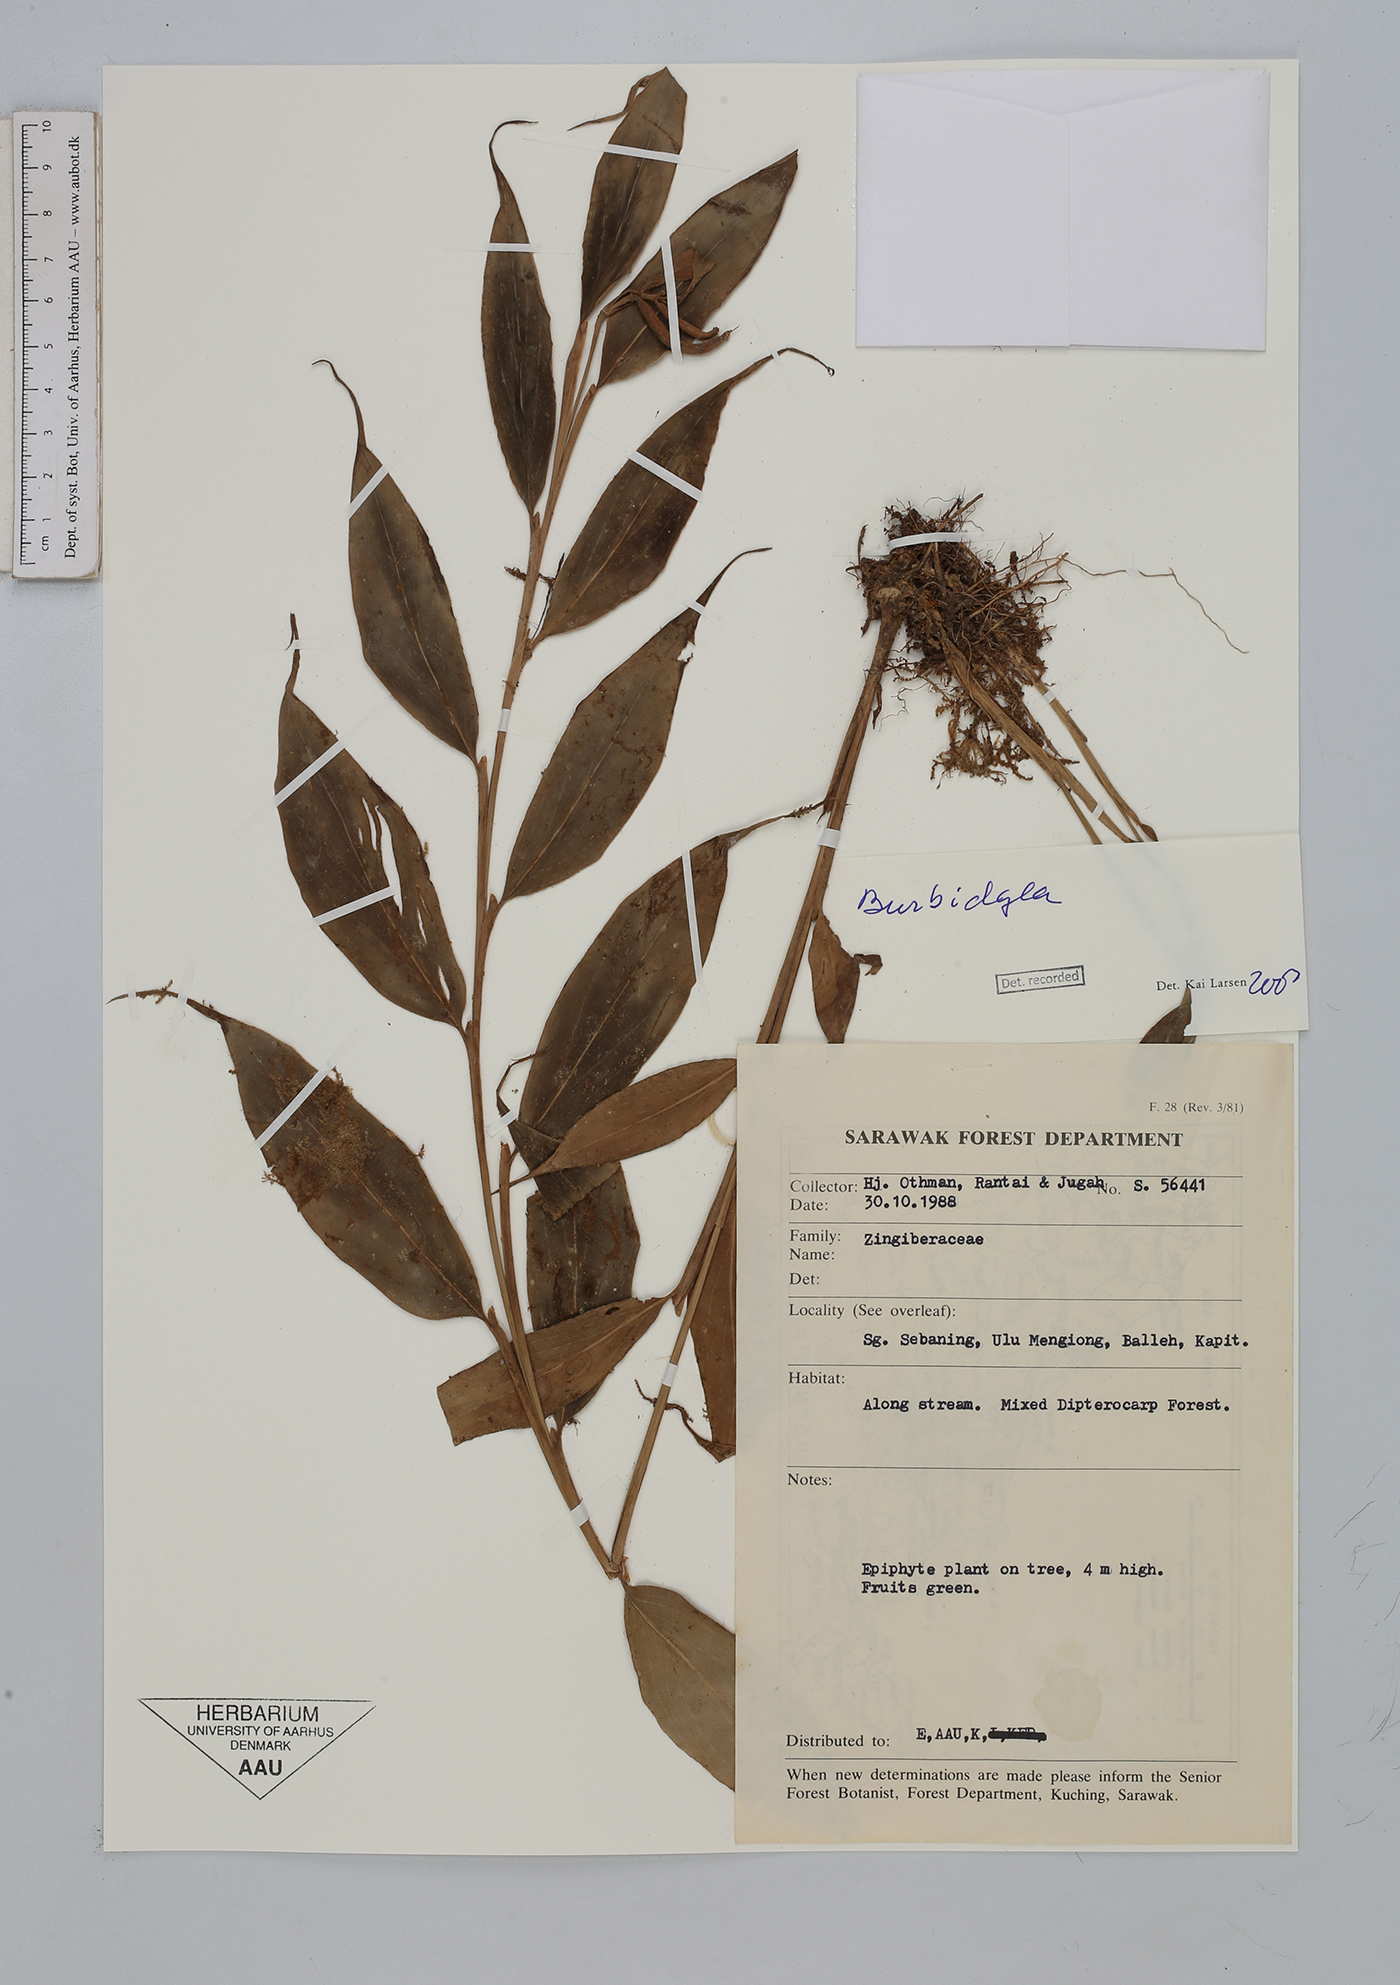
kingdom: Plantae
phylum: Tracheophyta
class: Liliopsida
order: Zingiberales
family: Zingiberaceae
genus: Burbidgea
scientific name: Burbidgea
